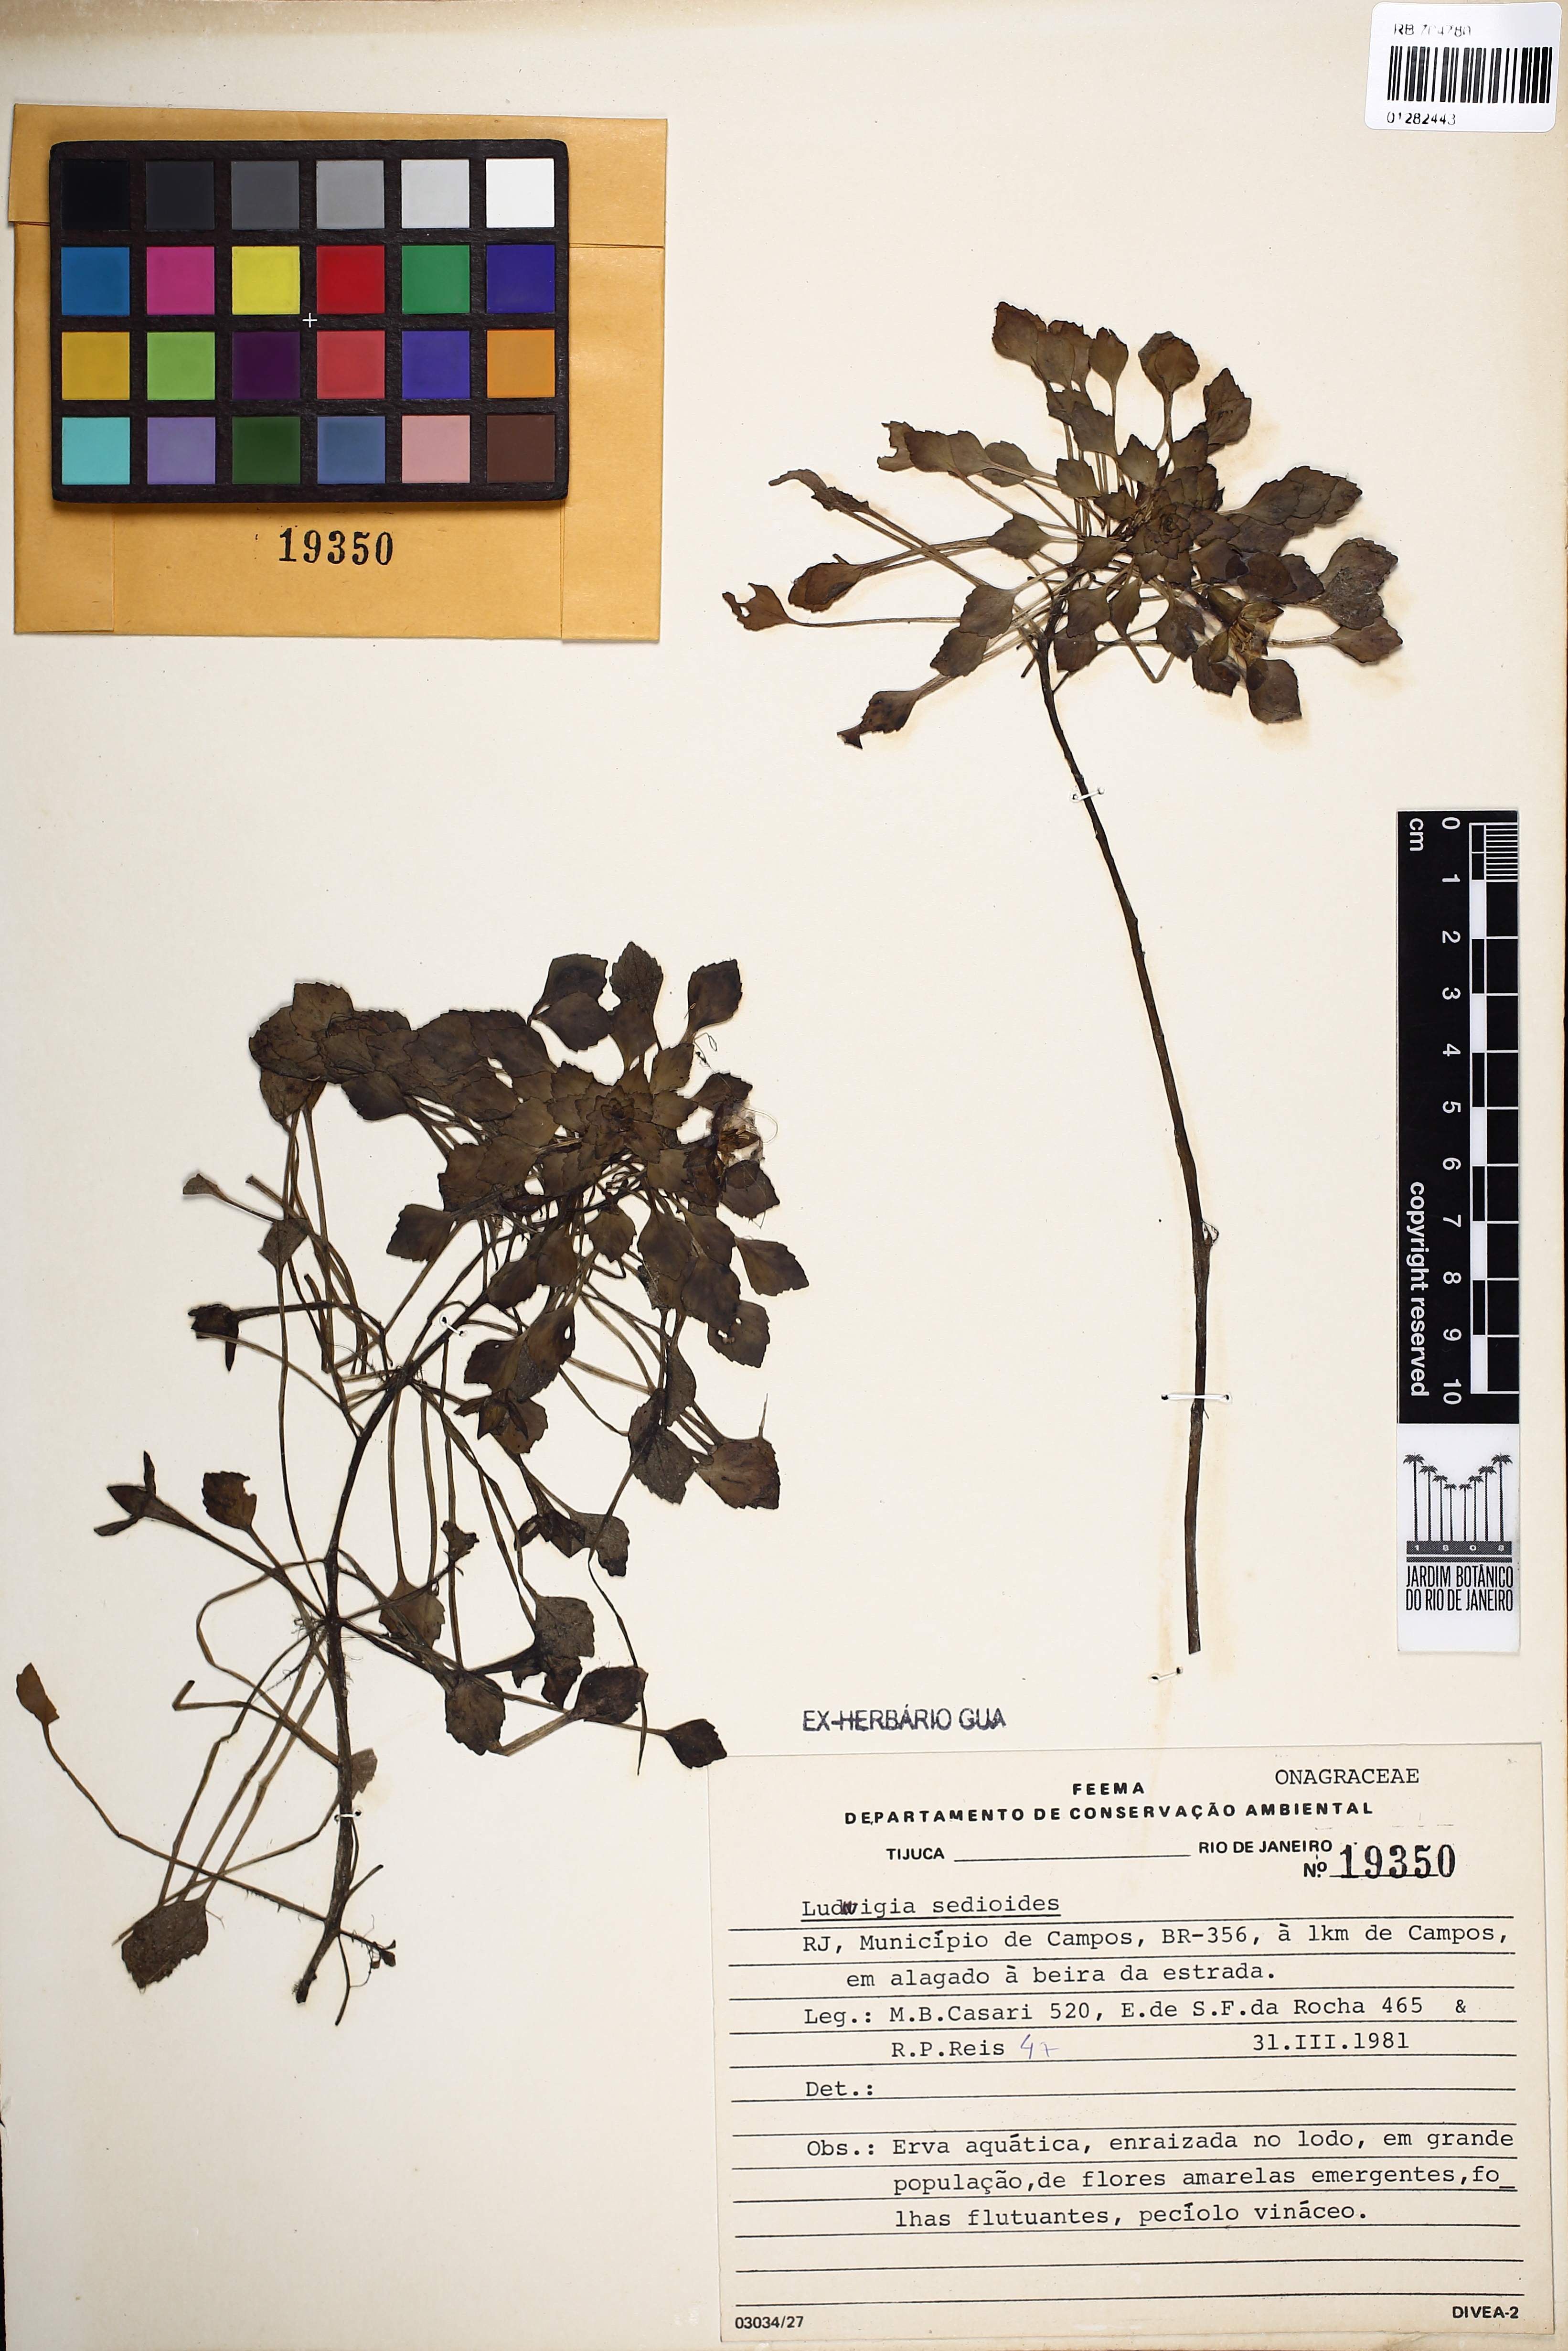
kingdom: Plantae
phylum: Tracheophyta
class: Magnoliopsida
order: Myrtales
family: Onagraceae
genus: Ludwigia
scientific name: Ludwigia sedioides
